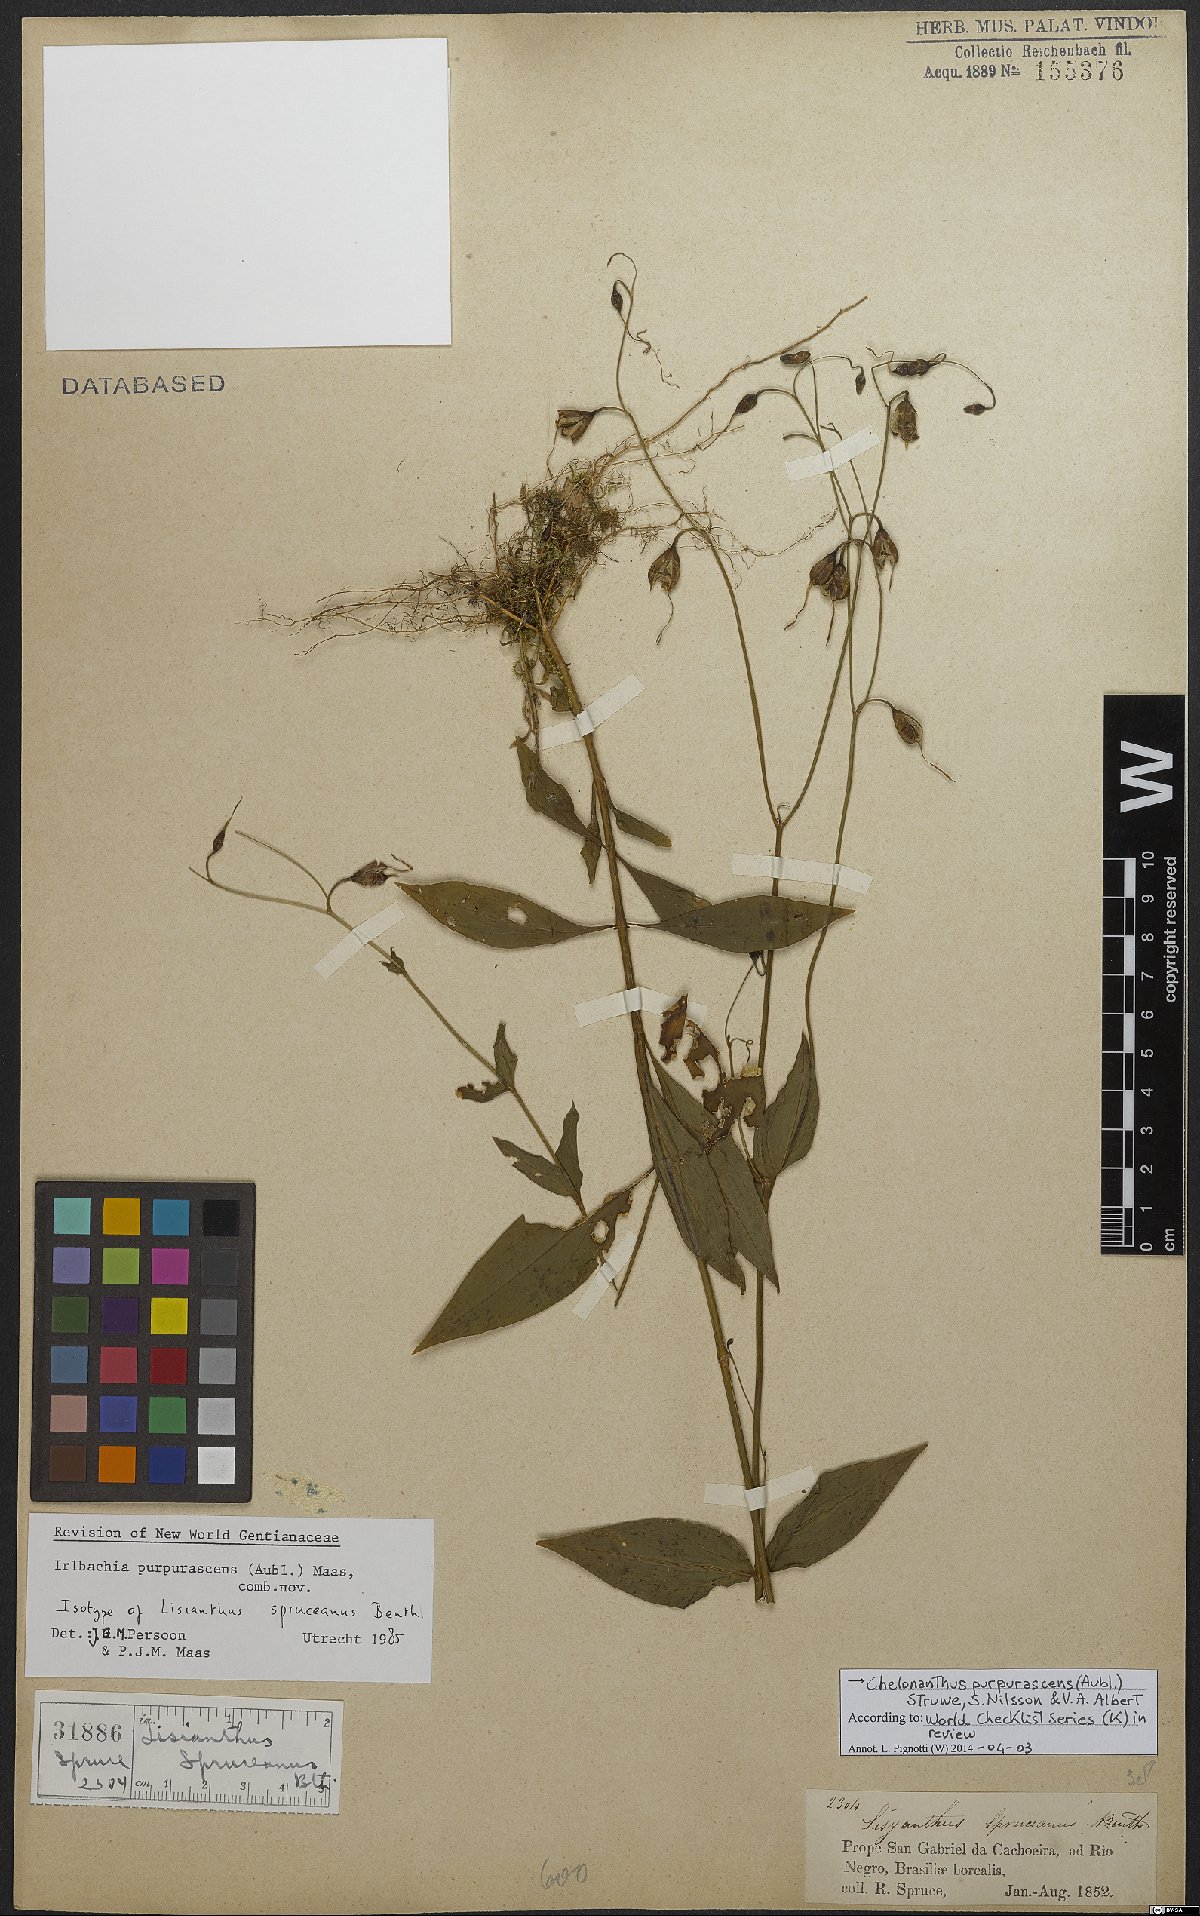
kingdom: Plantae
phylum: Tracheophyta
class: Magnoliopsida
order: Gentianales
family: Gentianaceae
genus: Chelonanthus
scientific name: Chelonanthus purpurascens
